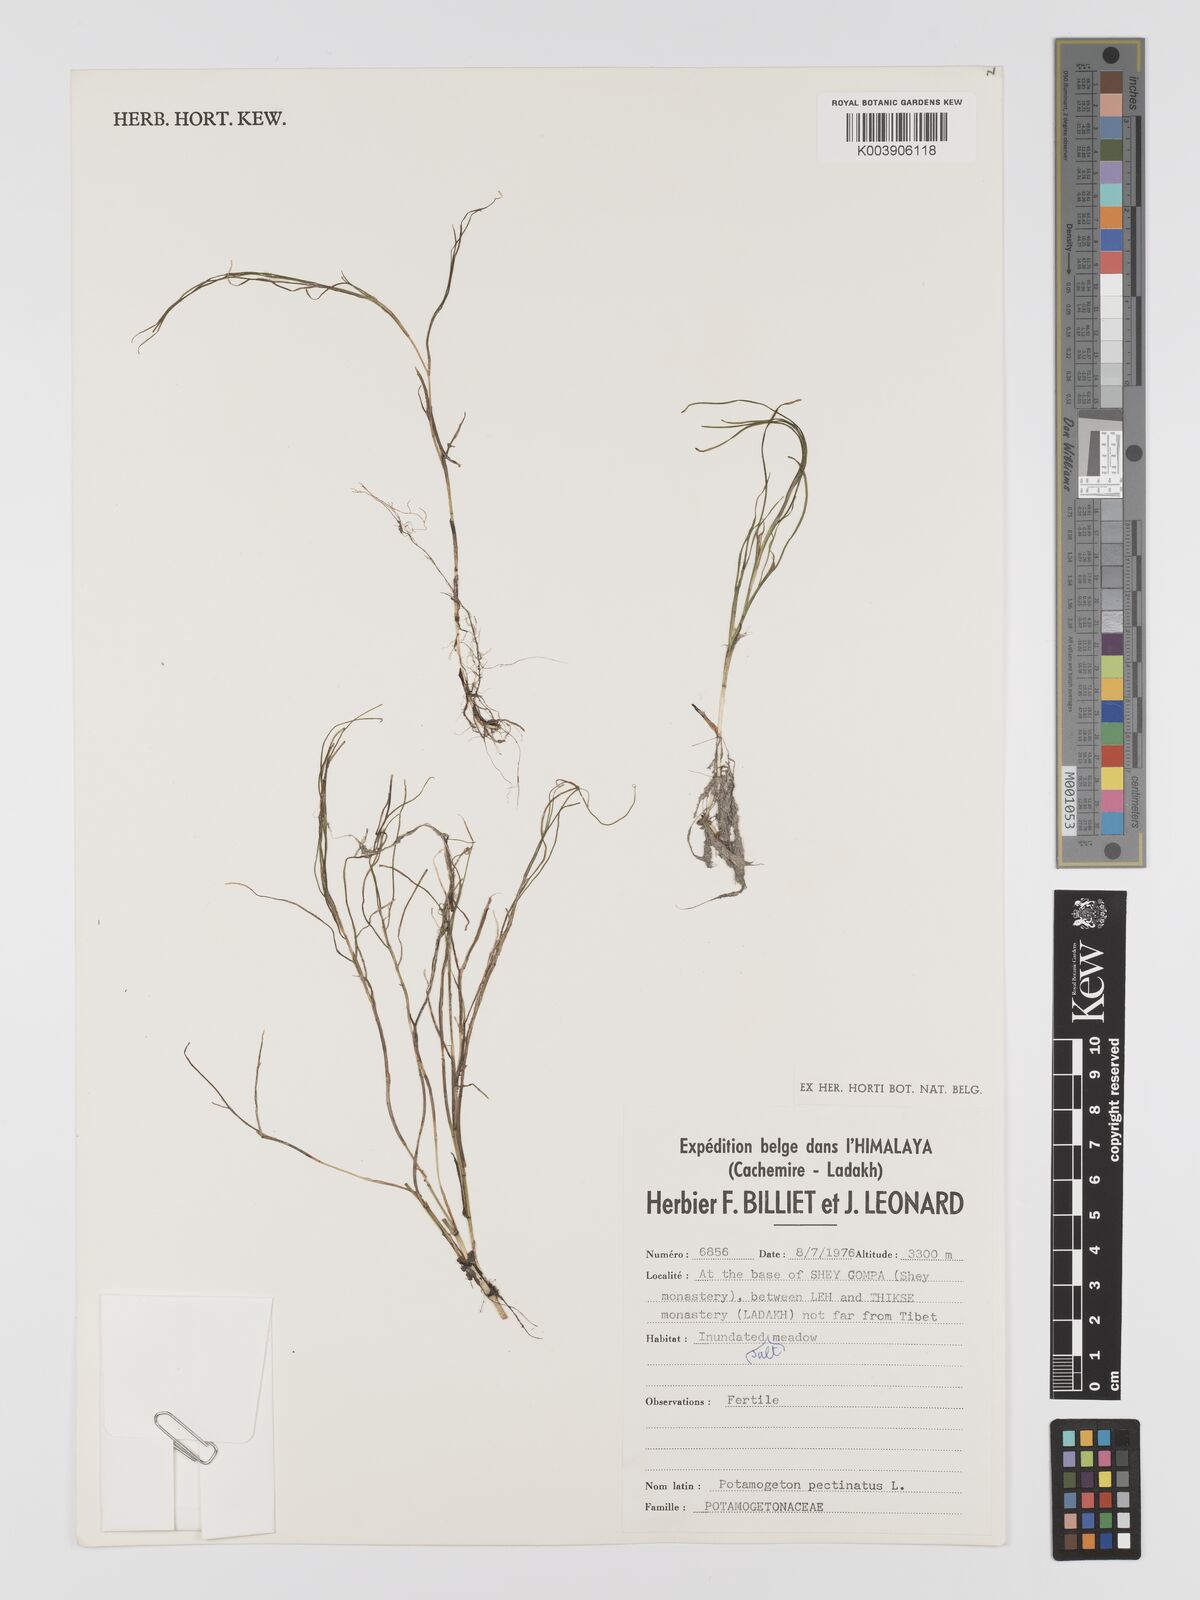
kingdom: Plantae
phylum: Tracheophyta
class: Liliopsida
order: Alismatales
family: Potamogetonaceae
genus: Stuckenia
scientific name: Stuckenia pectinata
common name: Sago pondweed
